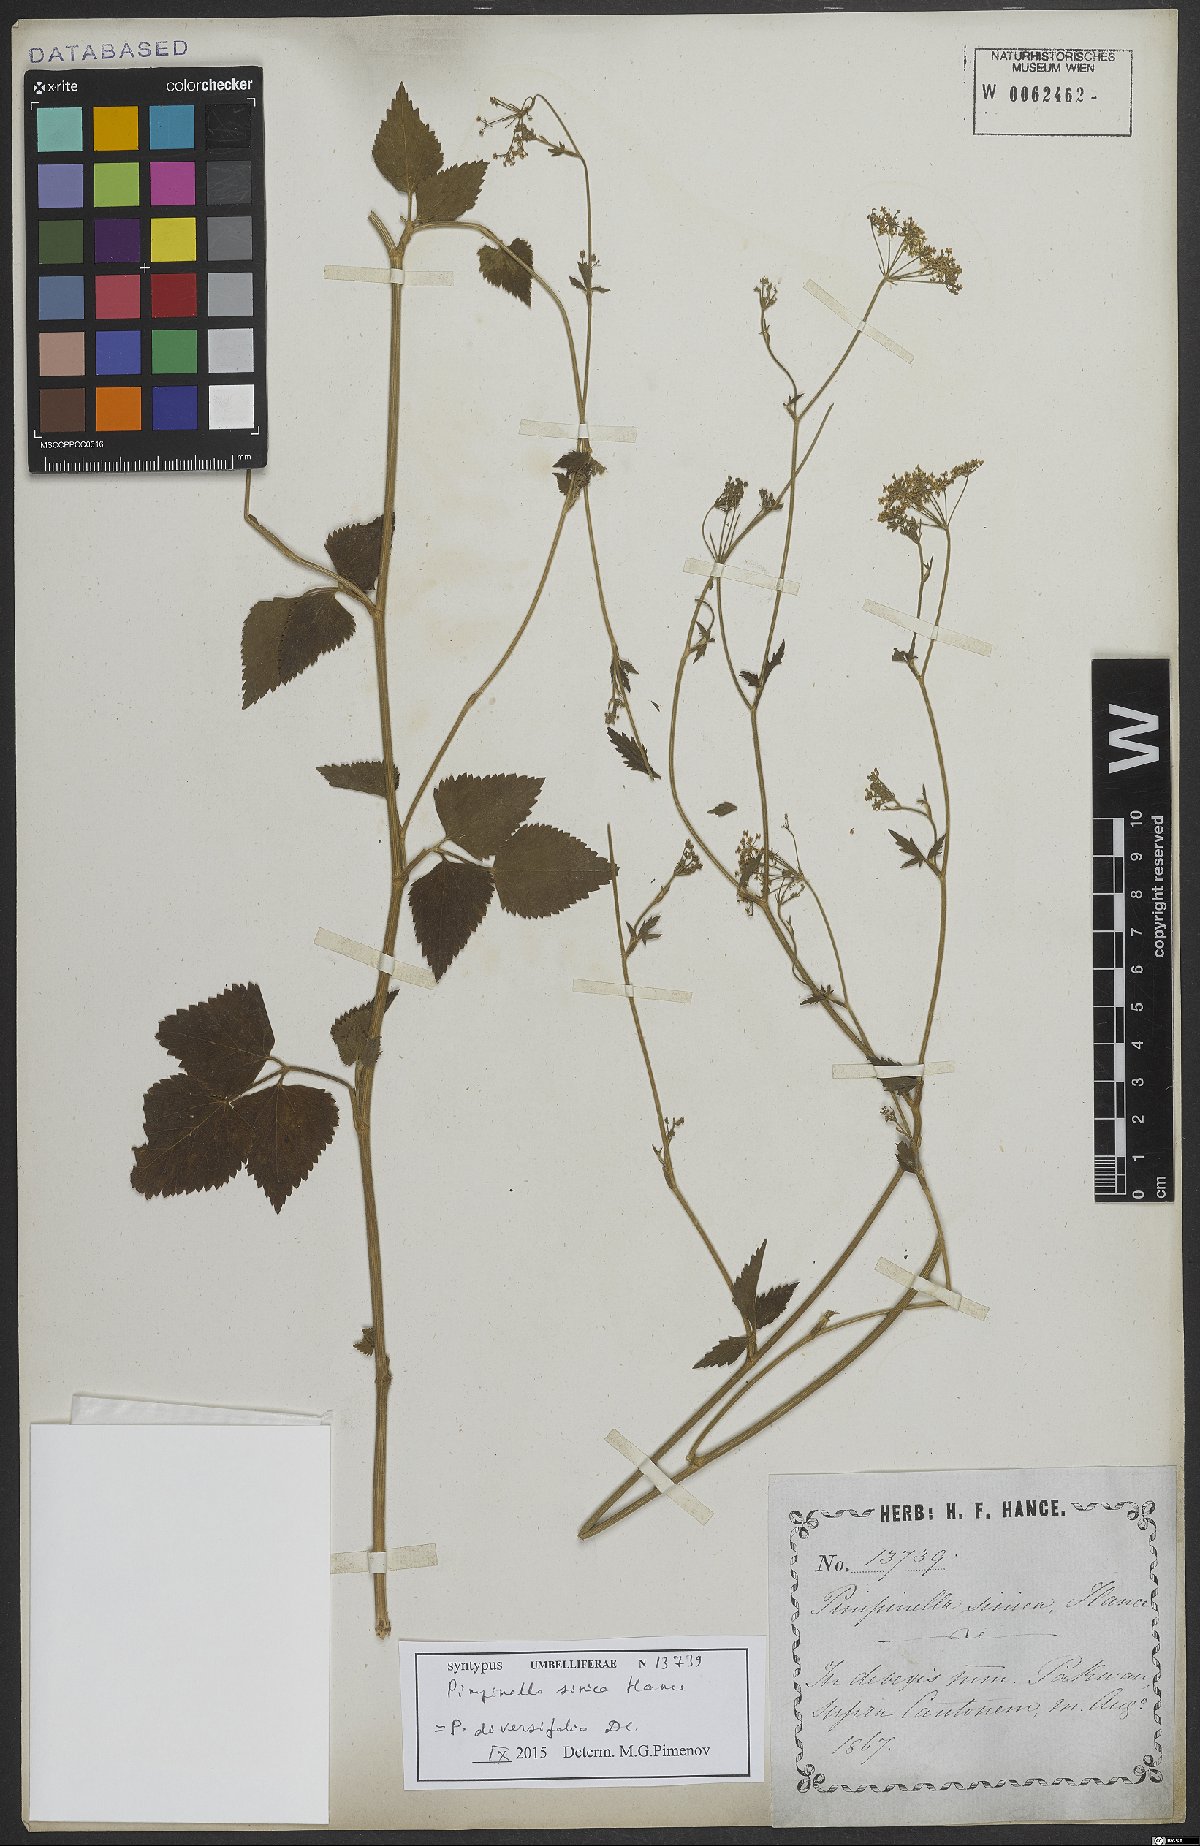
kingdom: Plantae
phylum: Tracheophyta
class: Magnoliopsida
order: Apiales
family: Apiaceae
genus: Pimpinella
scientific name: Pimpinella diversifolia
